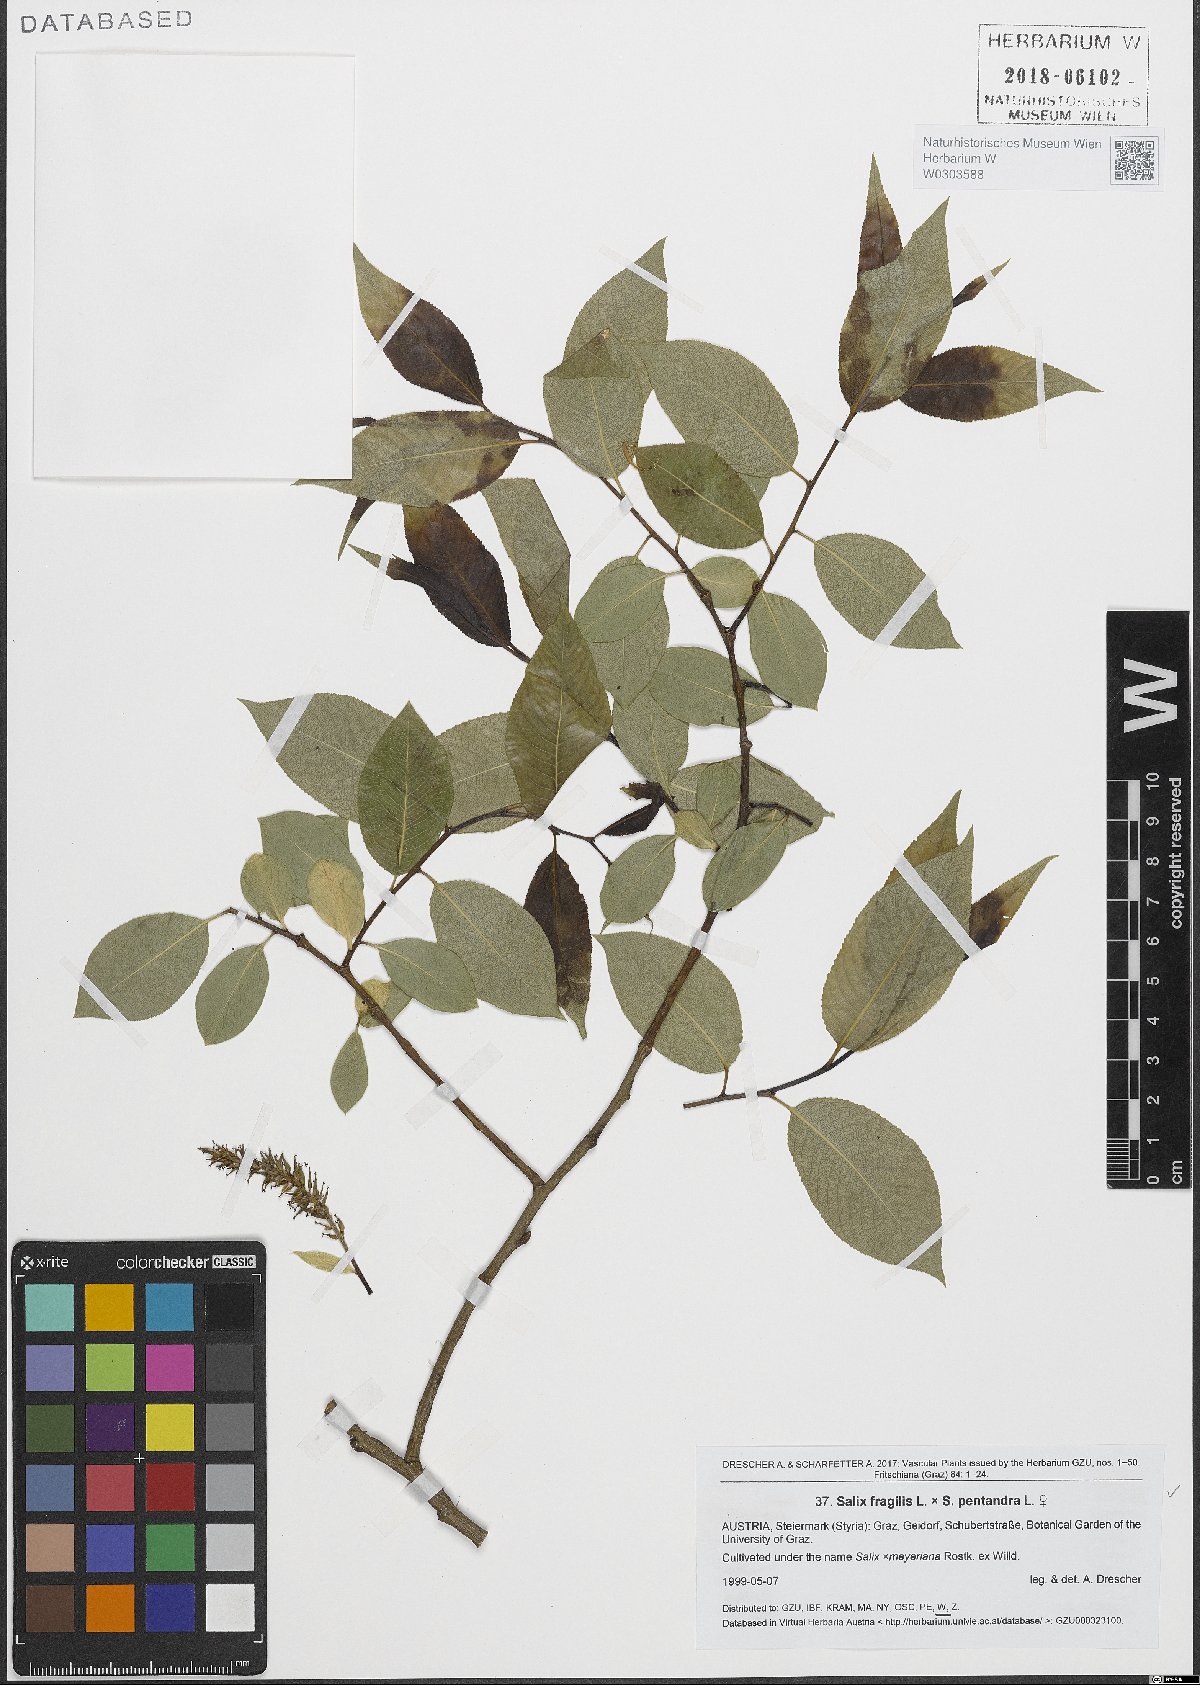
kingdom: Plantae
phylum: Tracheophyta
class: Magnoliopsida
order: Malpighiales
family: Salicaceae
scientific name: Salicaceae
